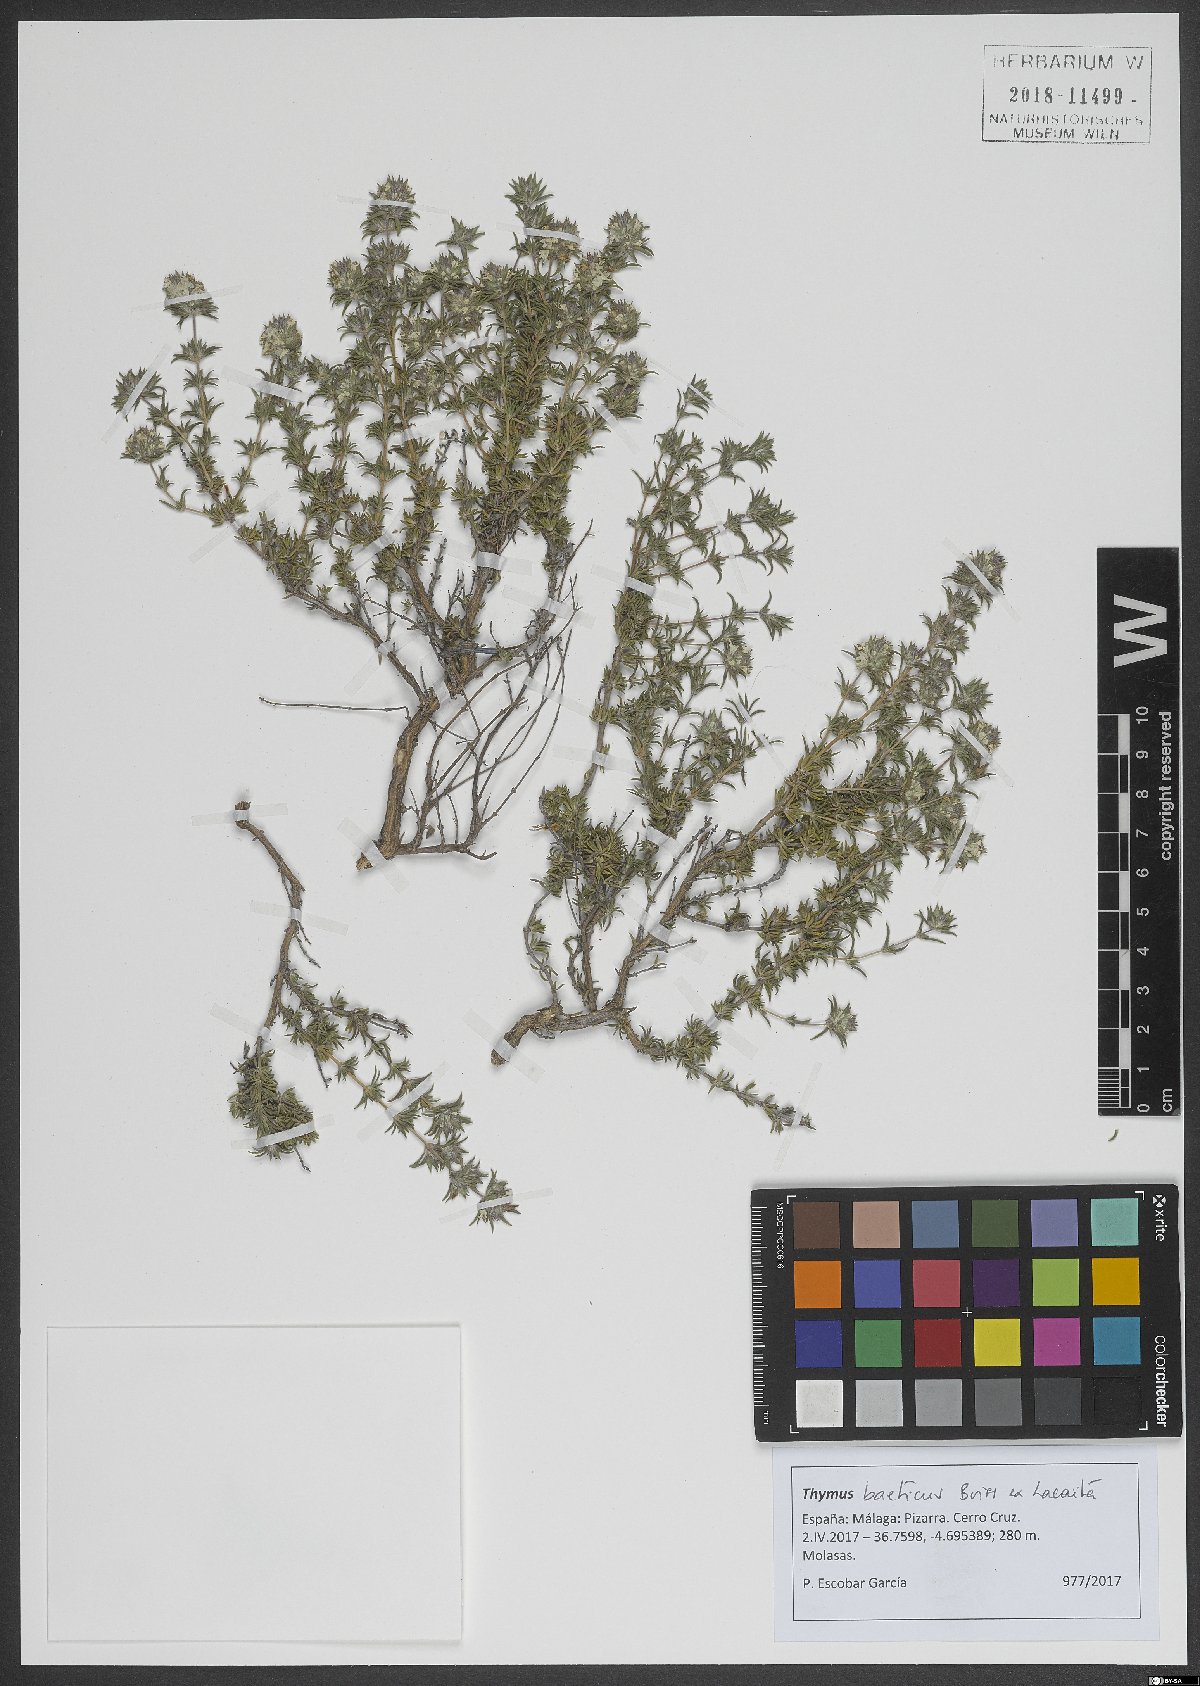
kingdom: Plantae
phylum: Tracheophyta
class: Magnoliopsida
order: Lamiales
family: Lamiaceae
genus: Thymus
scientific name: Thymus baeticus
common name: Spanish lemon thyme
